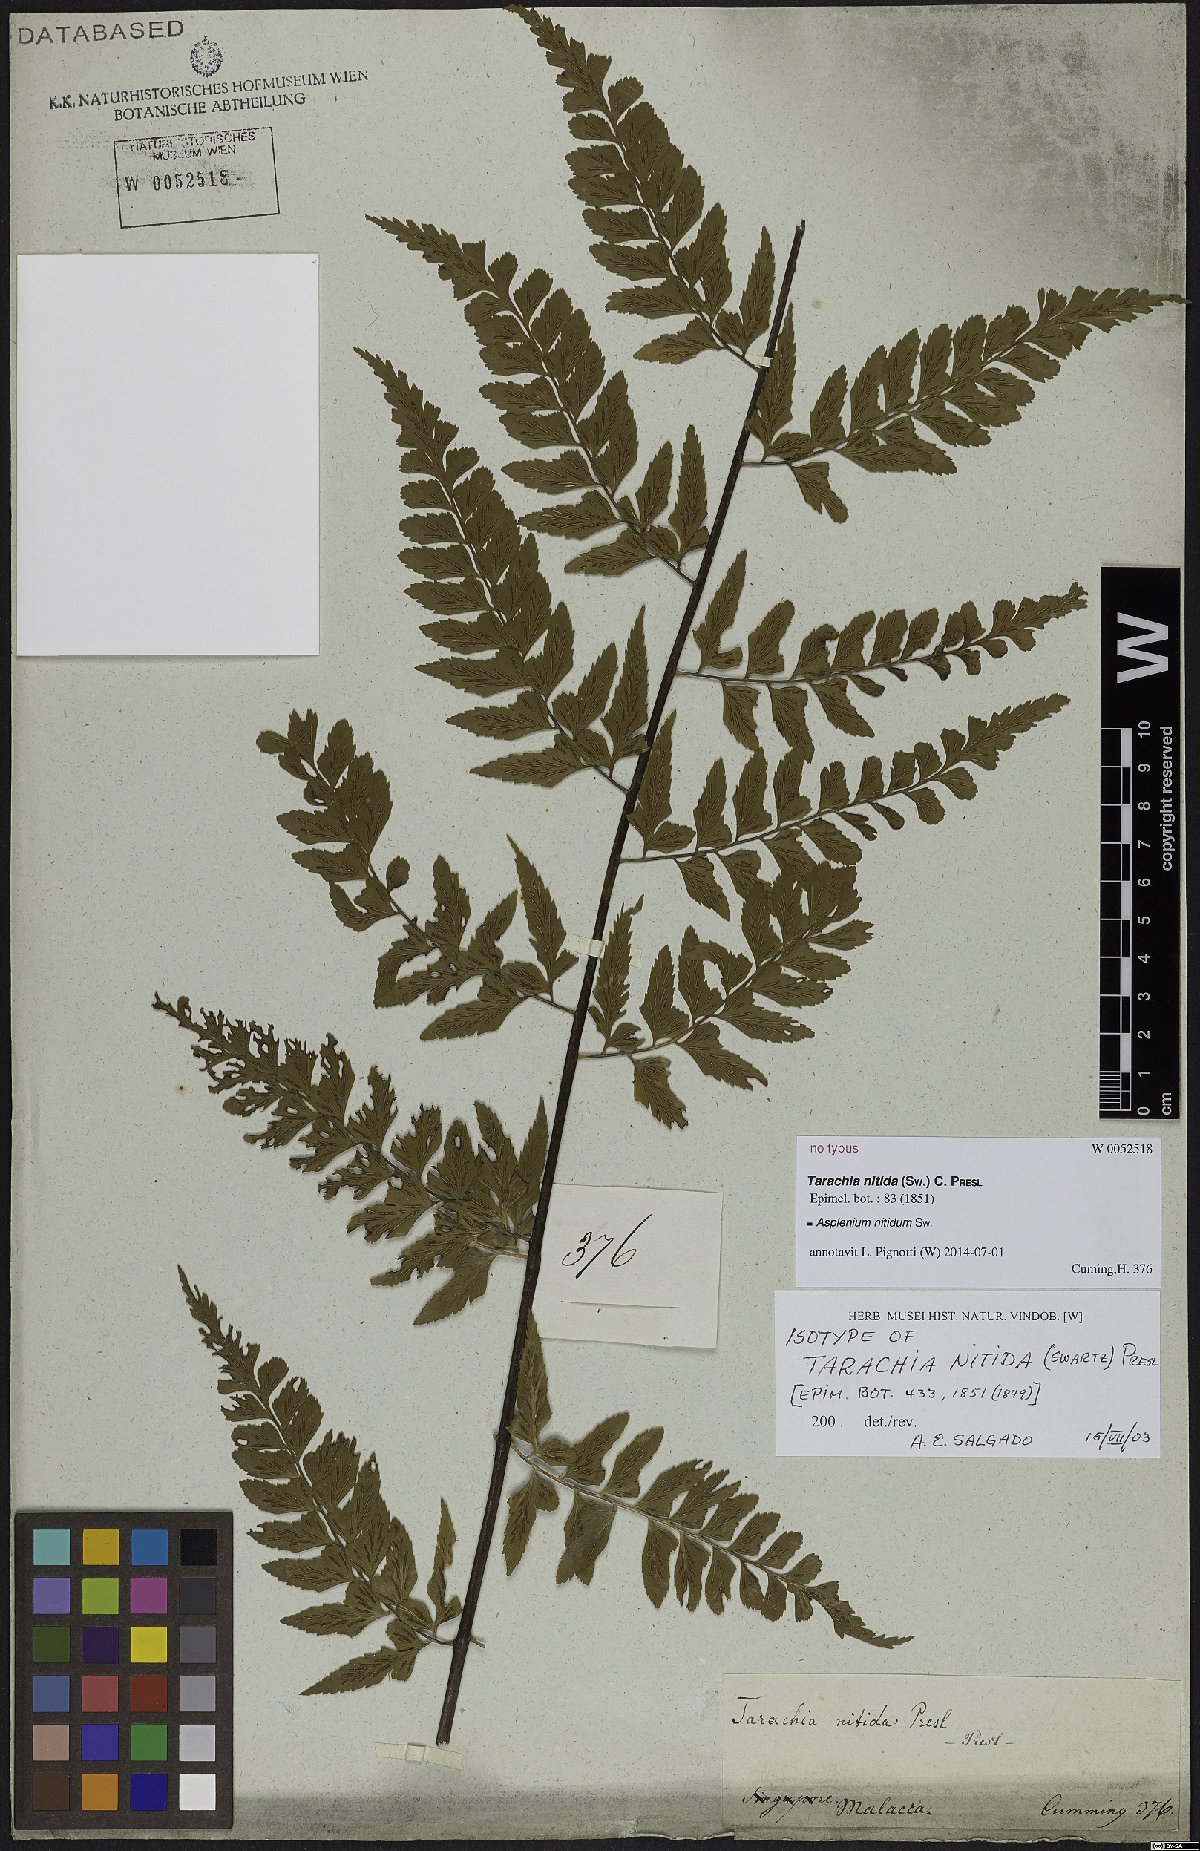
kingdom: Plantae
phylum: Tracheophyta
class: Polypodiopsida
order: Polypodiales
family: Aspleniaceae
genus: Asplenium
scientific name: Asplenium nitidum
